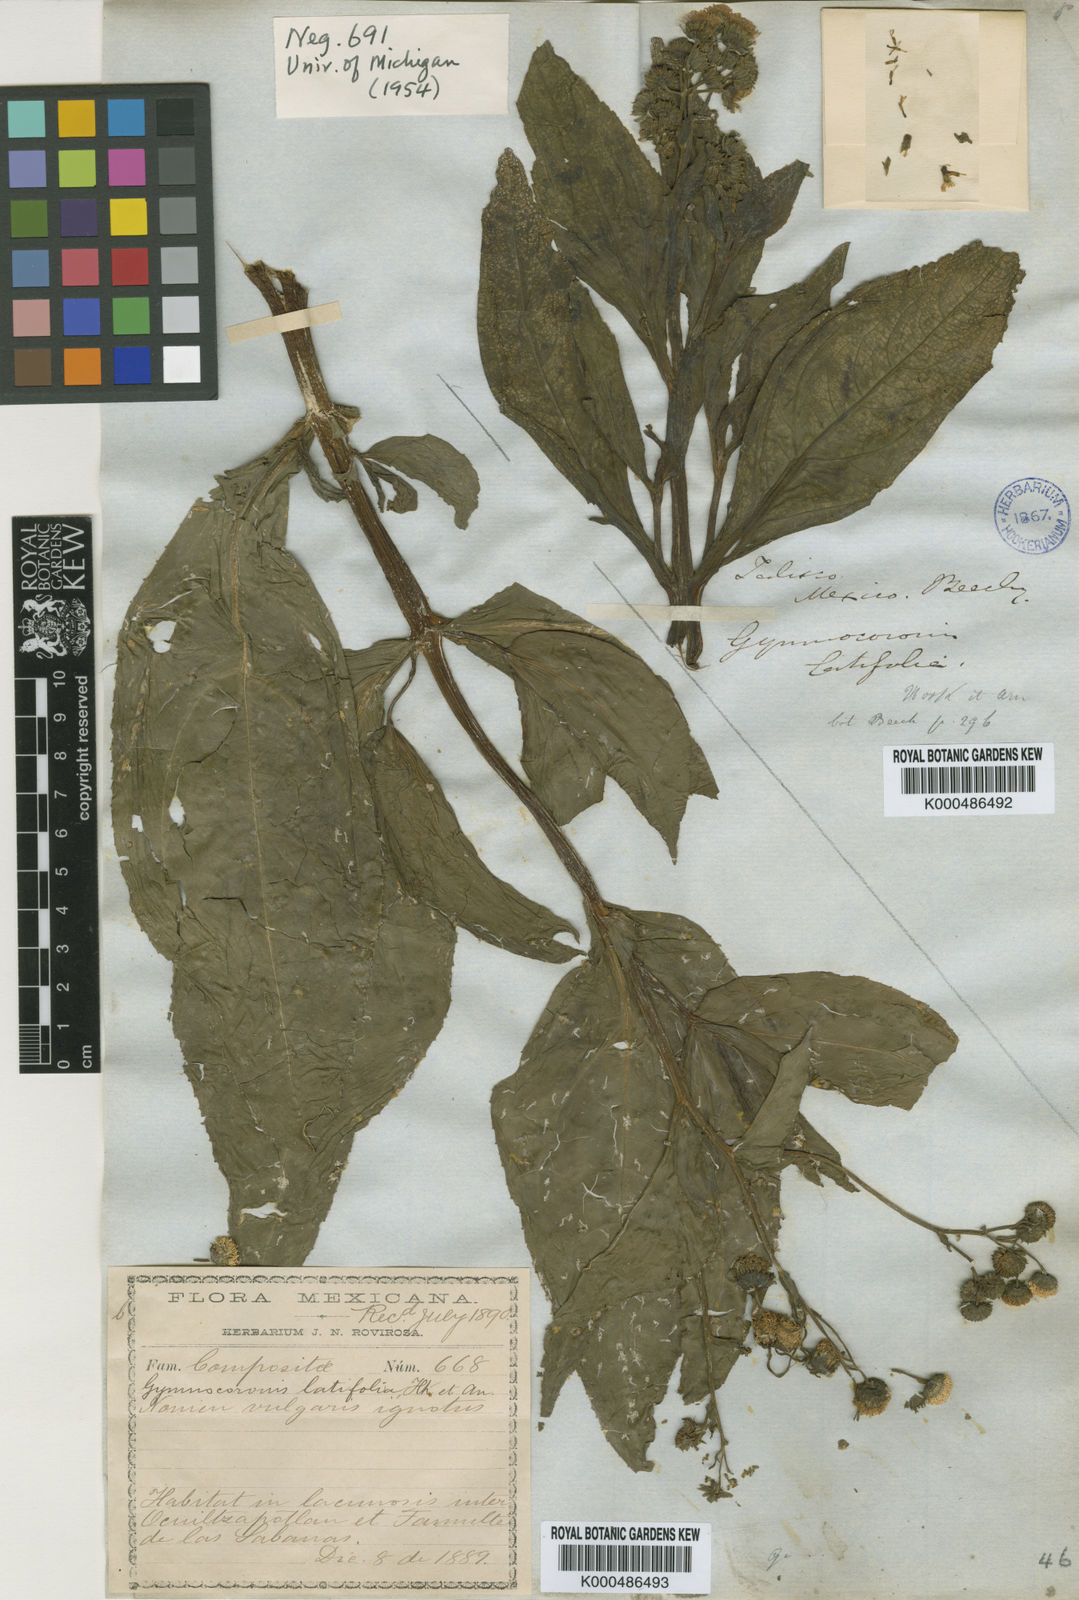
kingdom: Plantae
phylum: Tracheophyta
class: Magnoliopsida
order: Asterales
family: Asteraceae
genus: Gymnocoronis
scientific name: Gymnocoronis latifolia
